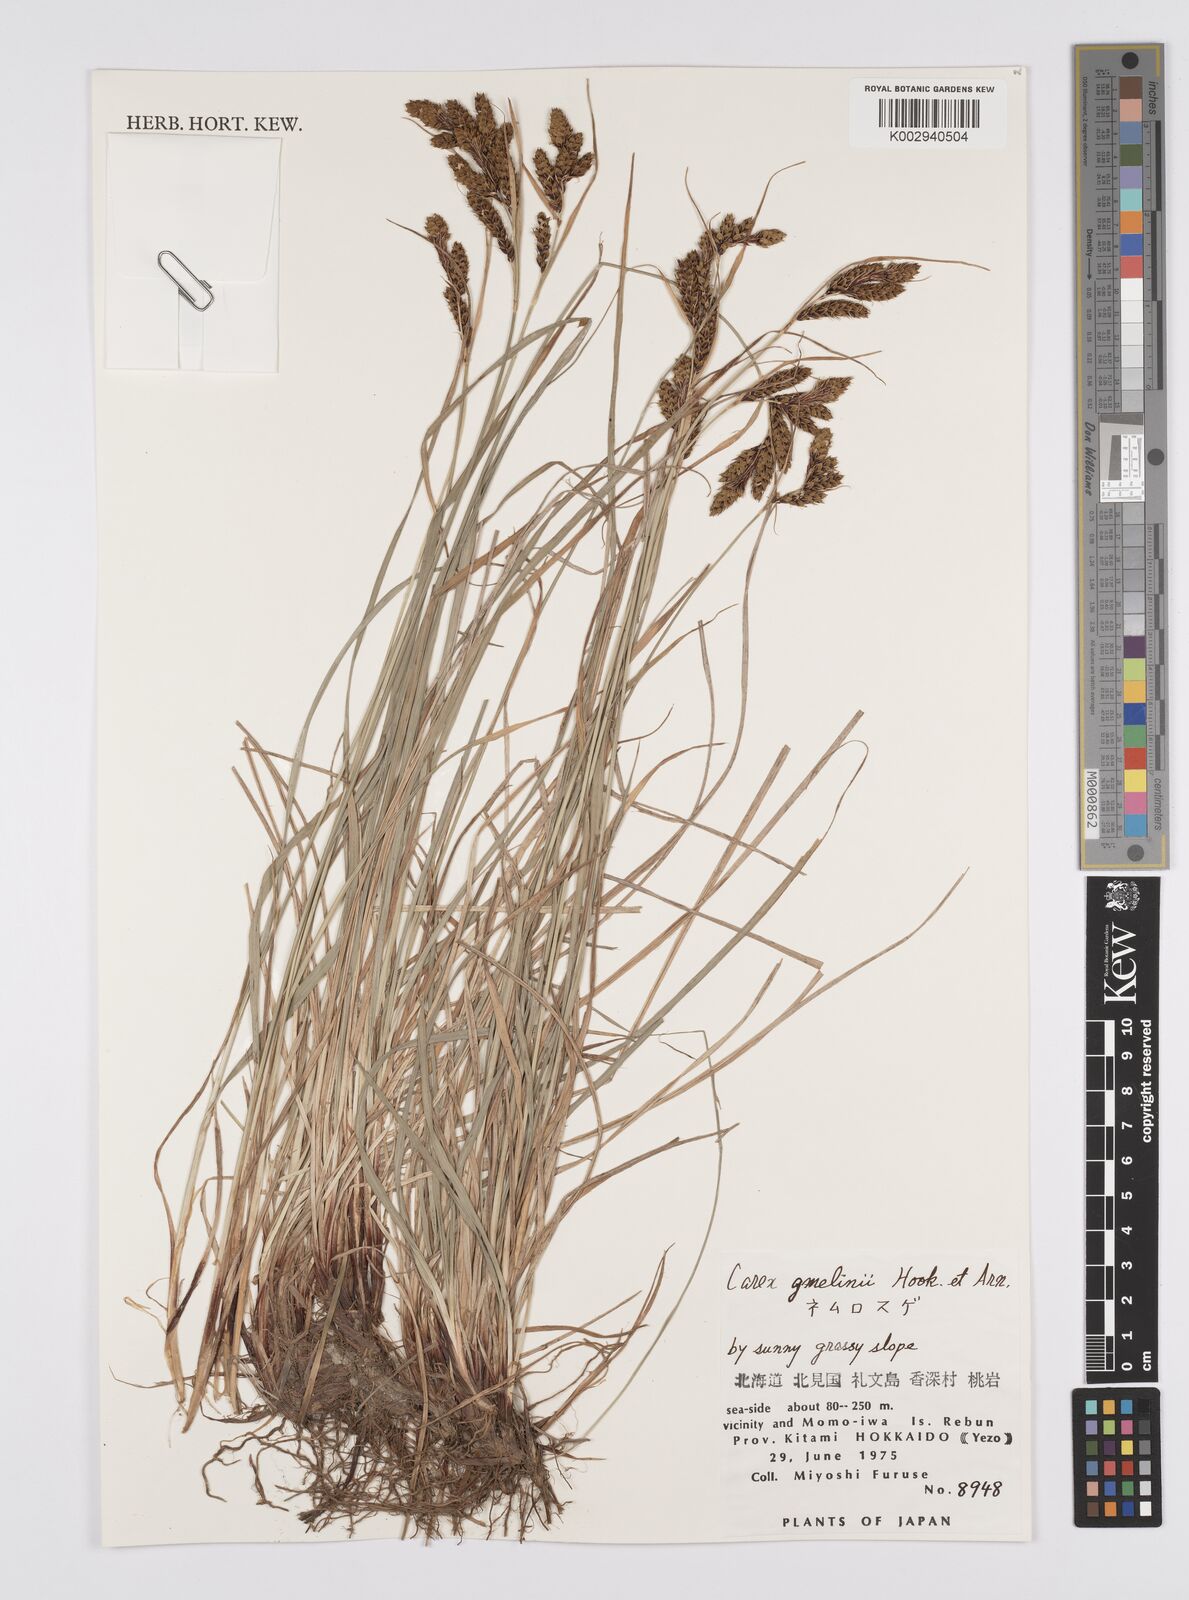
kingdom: Plantae
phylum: Tracheophyta
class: Liliopsida
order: Poales
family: Cyperaceae
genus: Carex
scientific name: Carex gmelinii
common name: Gmelin's sedge
